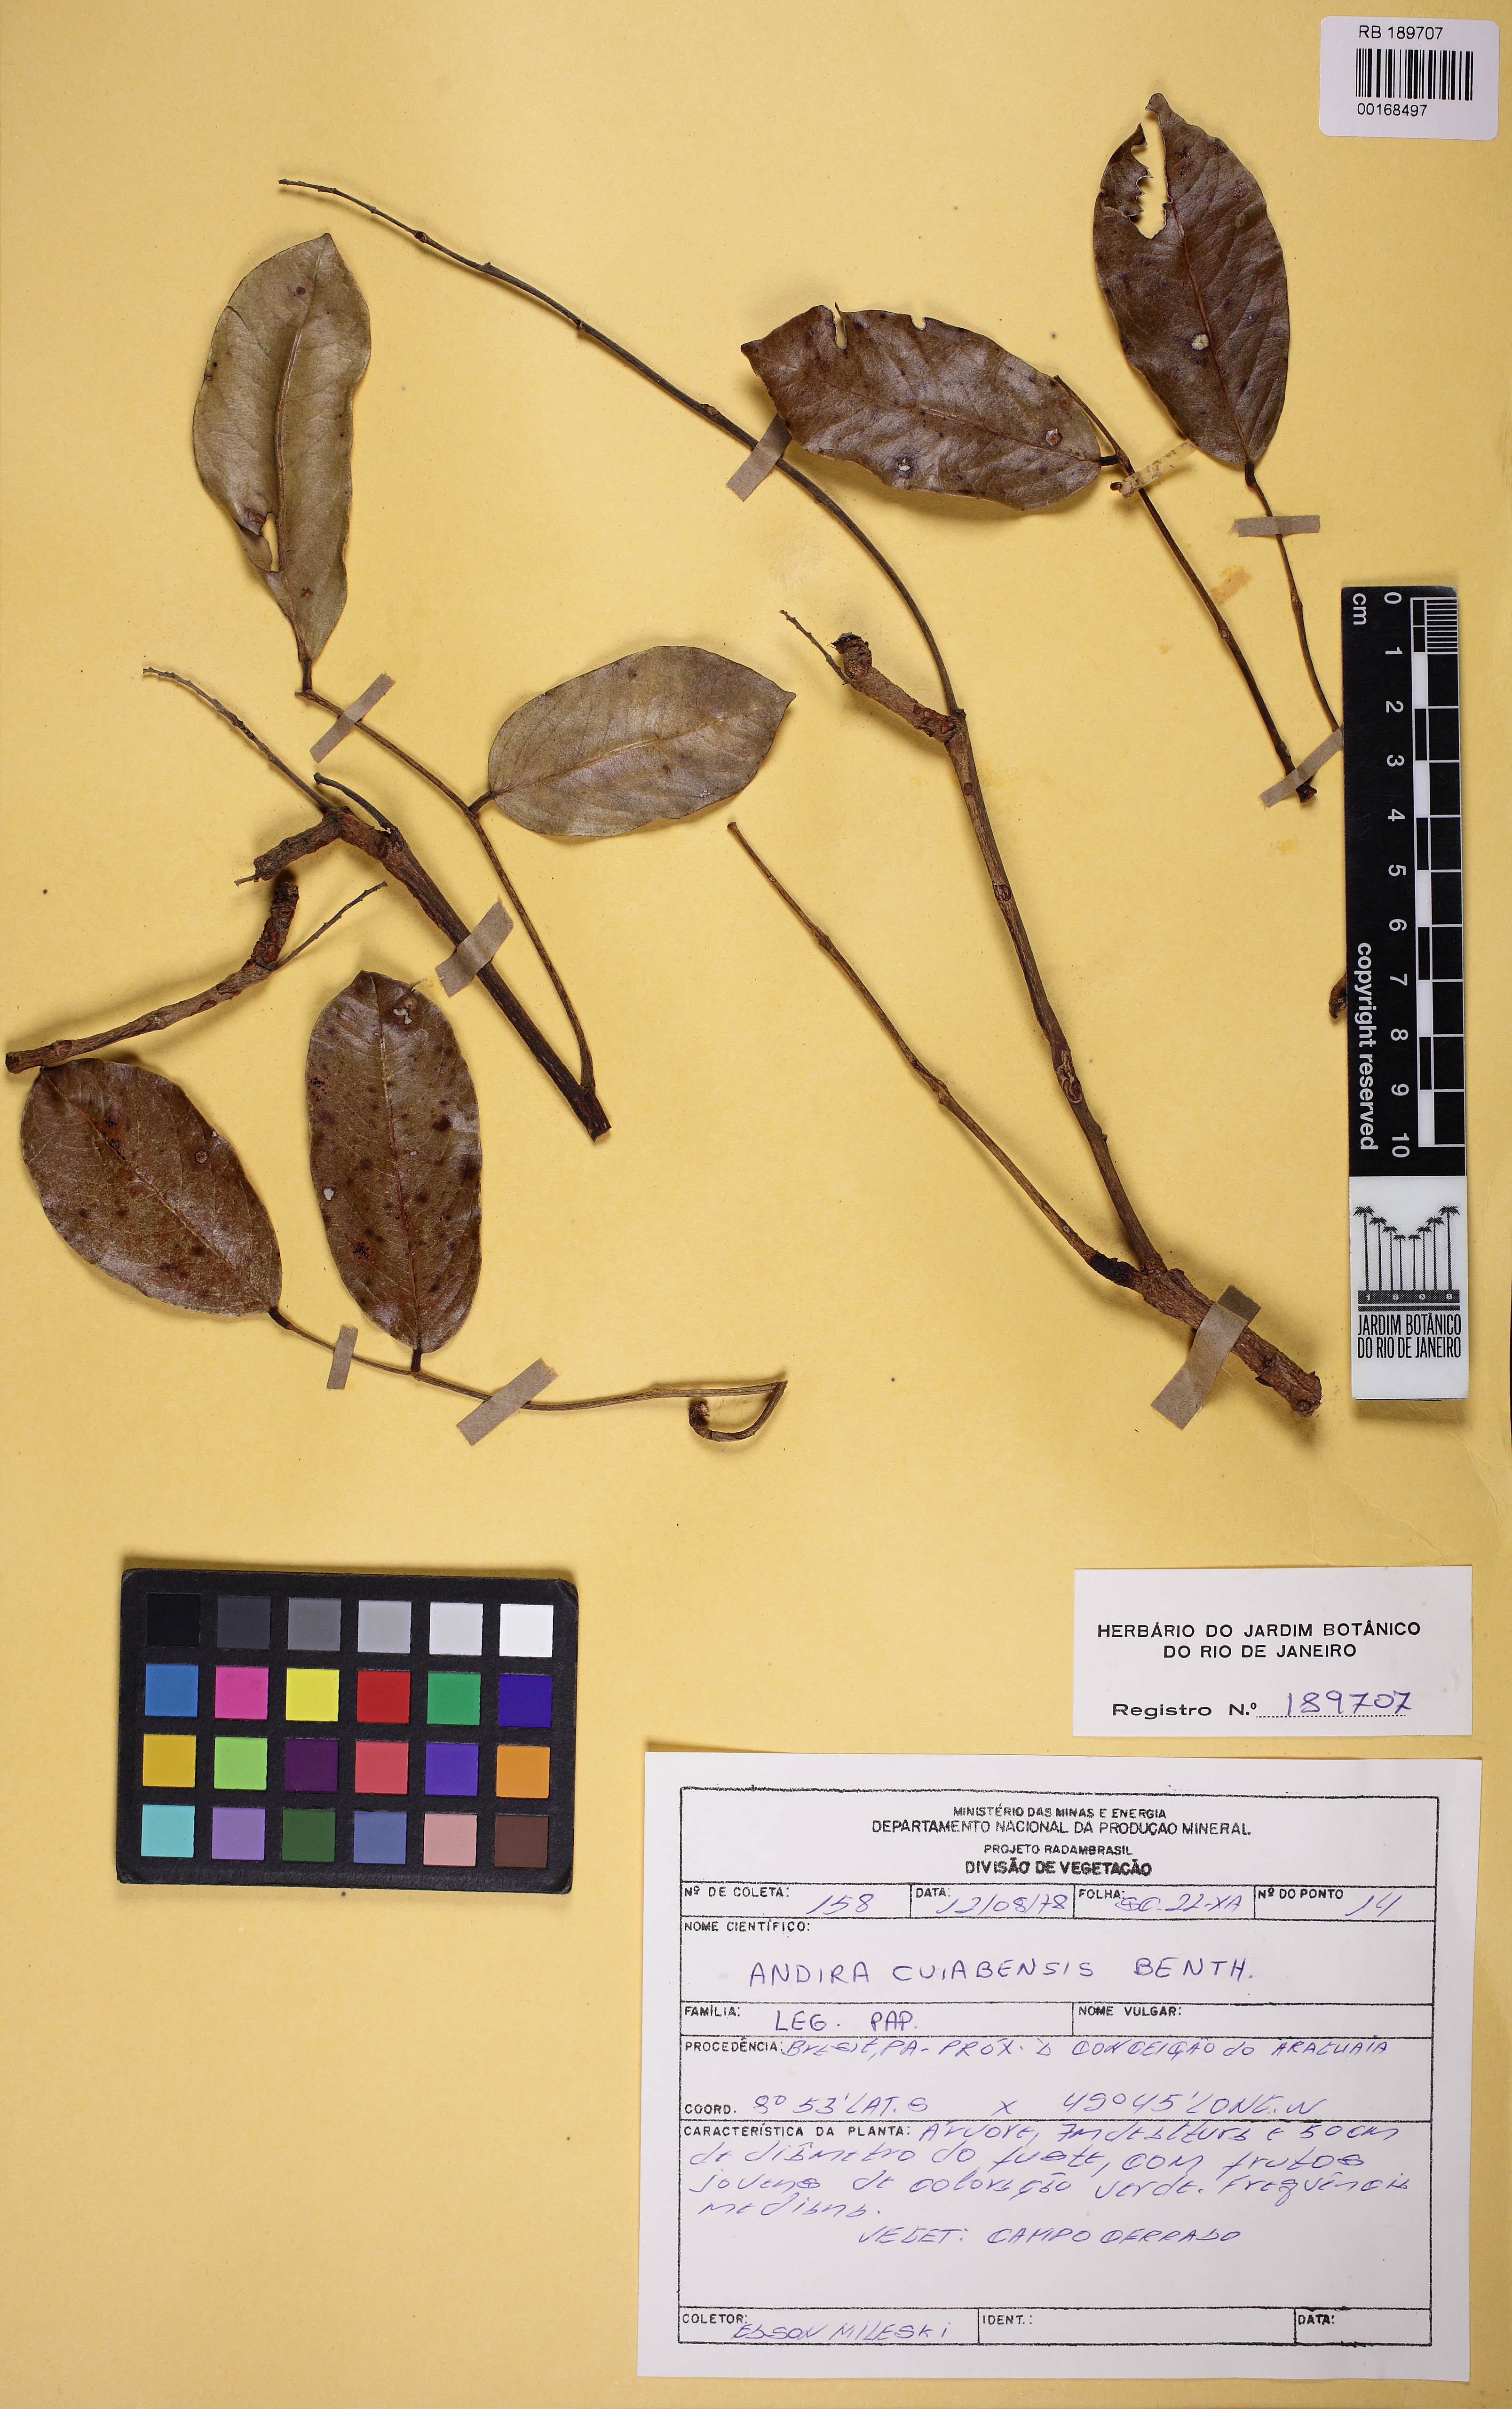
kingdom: Plantae
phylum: Tracheophyta
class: Magnoliopsida
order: Fabales
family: Fabaceae
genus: Andira
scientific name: Andira cujabensis
